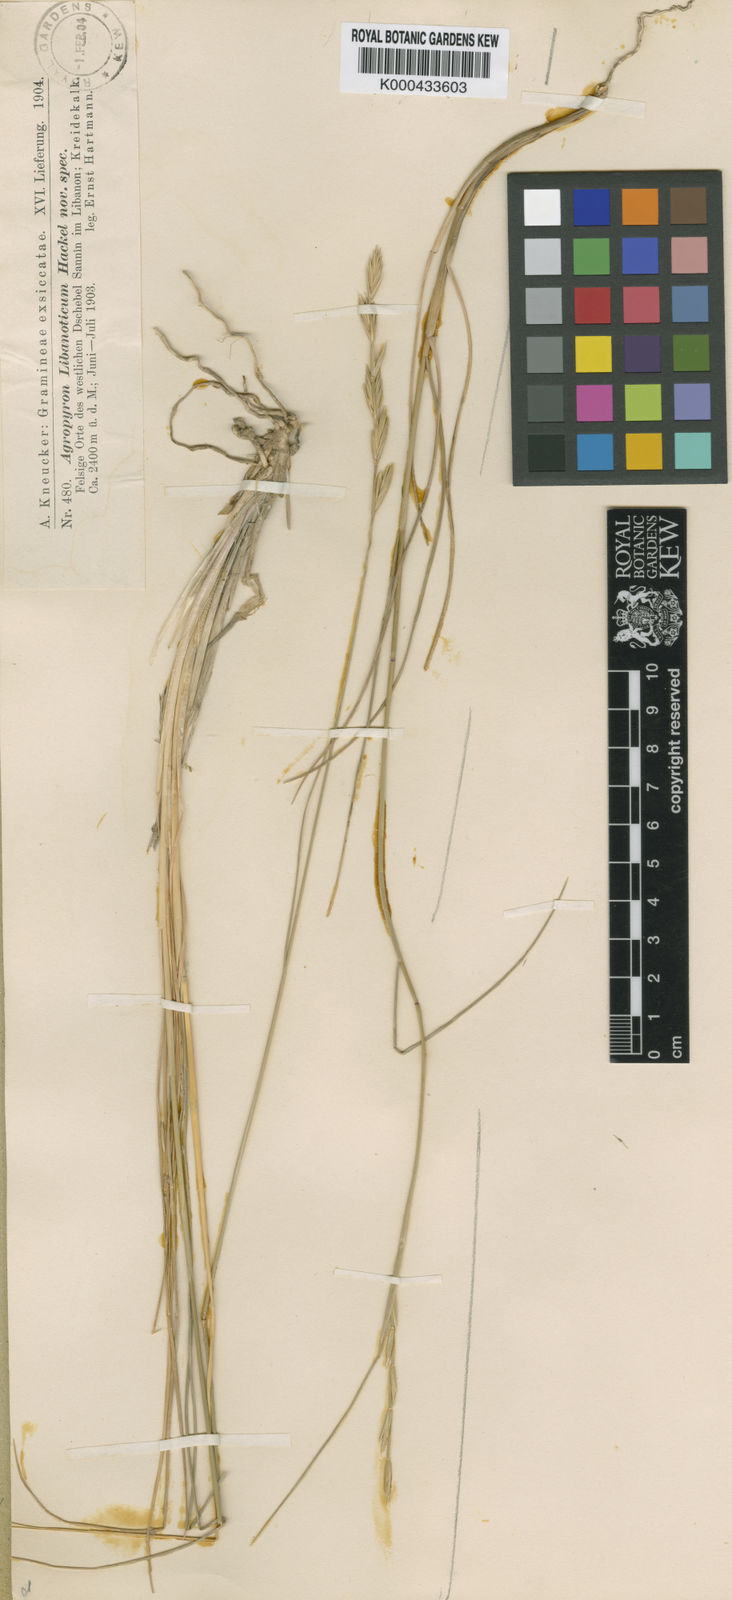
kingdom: Plantae
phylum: Tracheophyta
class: Liliopsida
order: Poales
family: Poaceae
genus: Pseudoroegneria
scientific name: Pseudoroegneria libanotica
